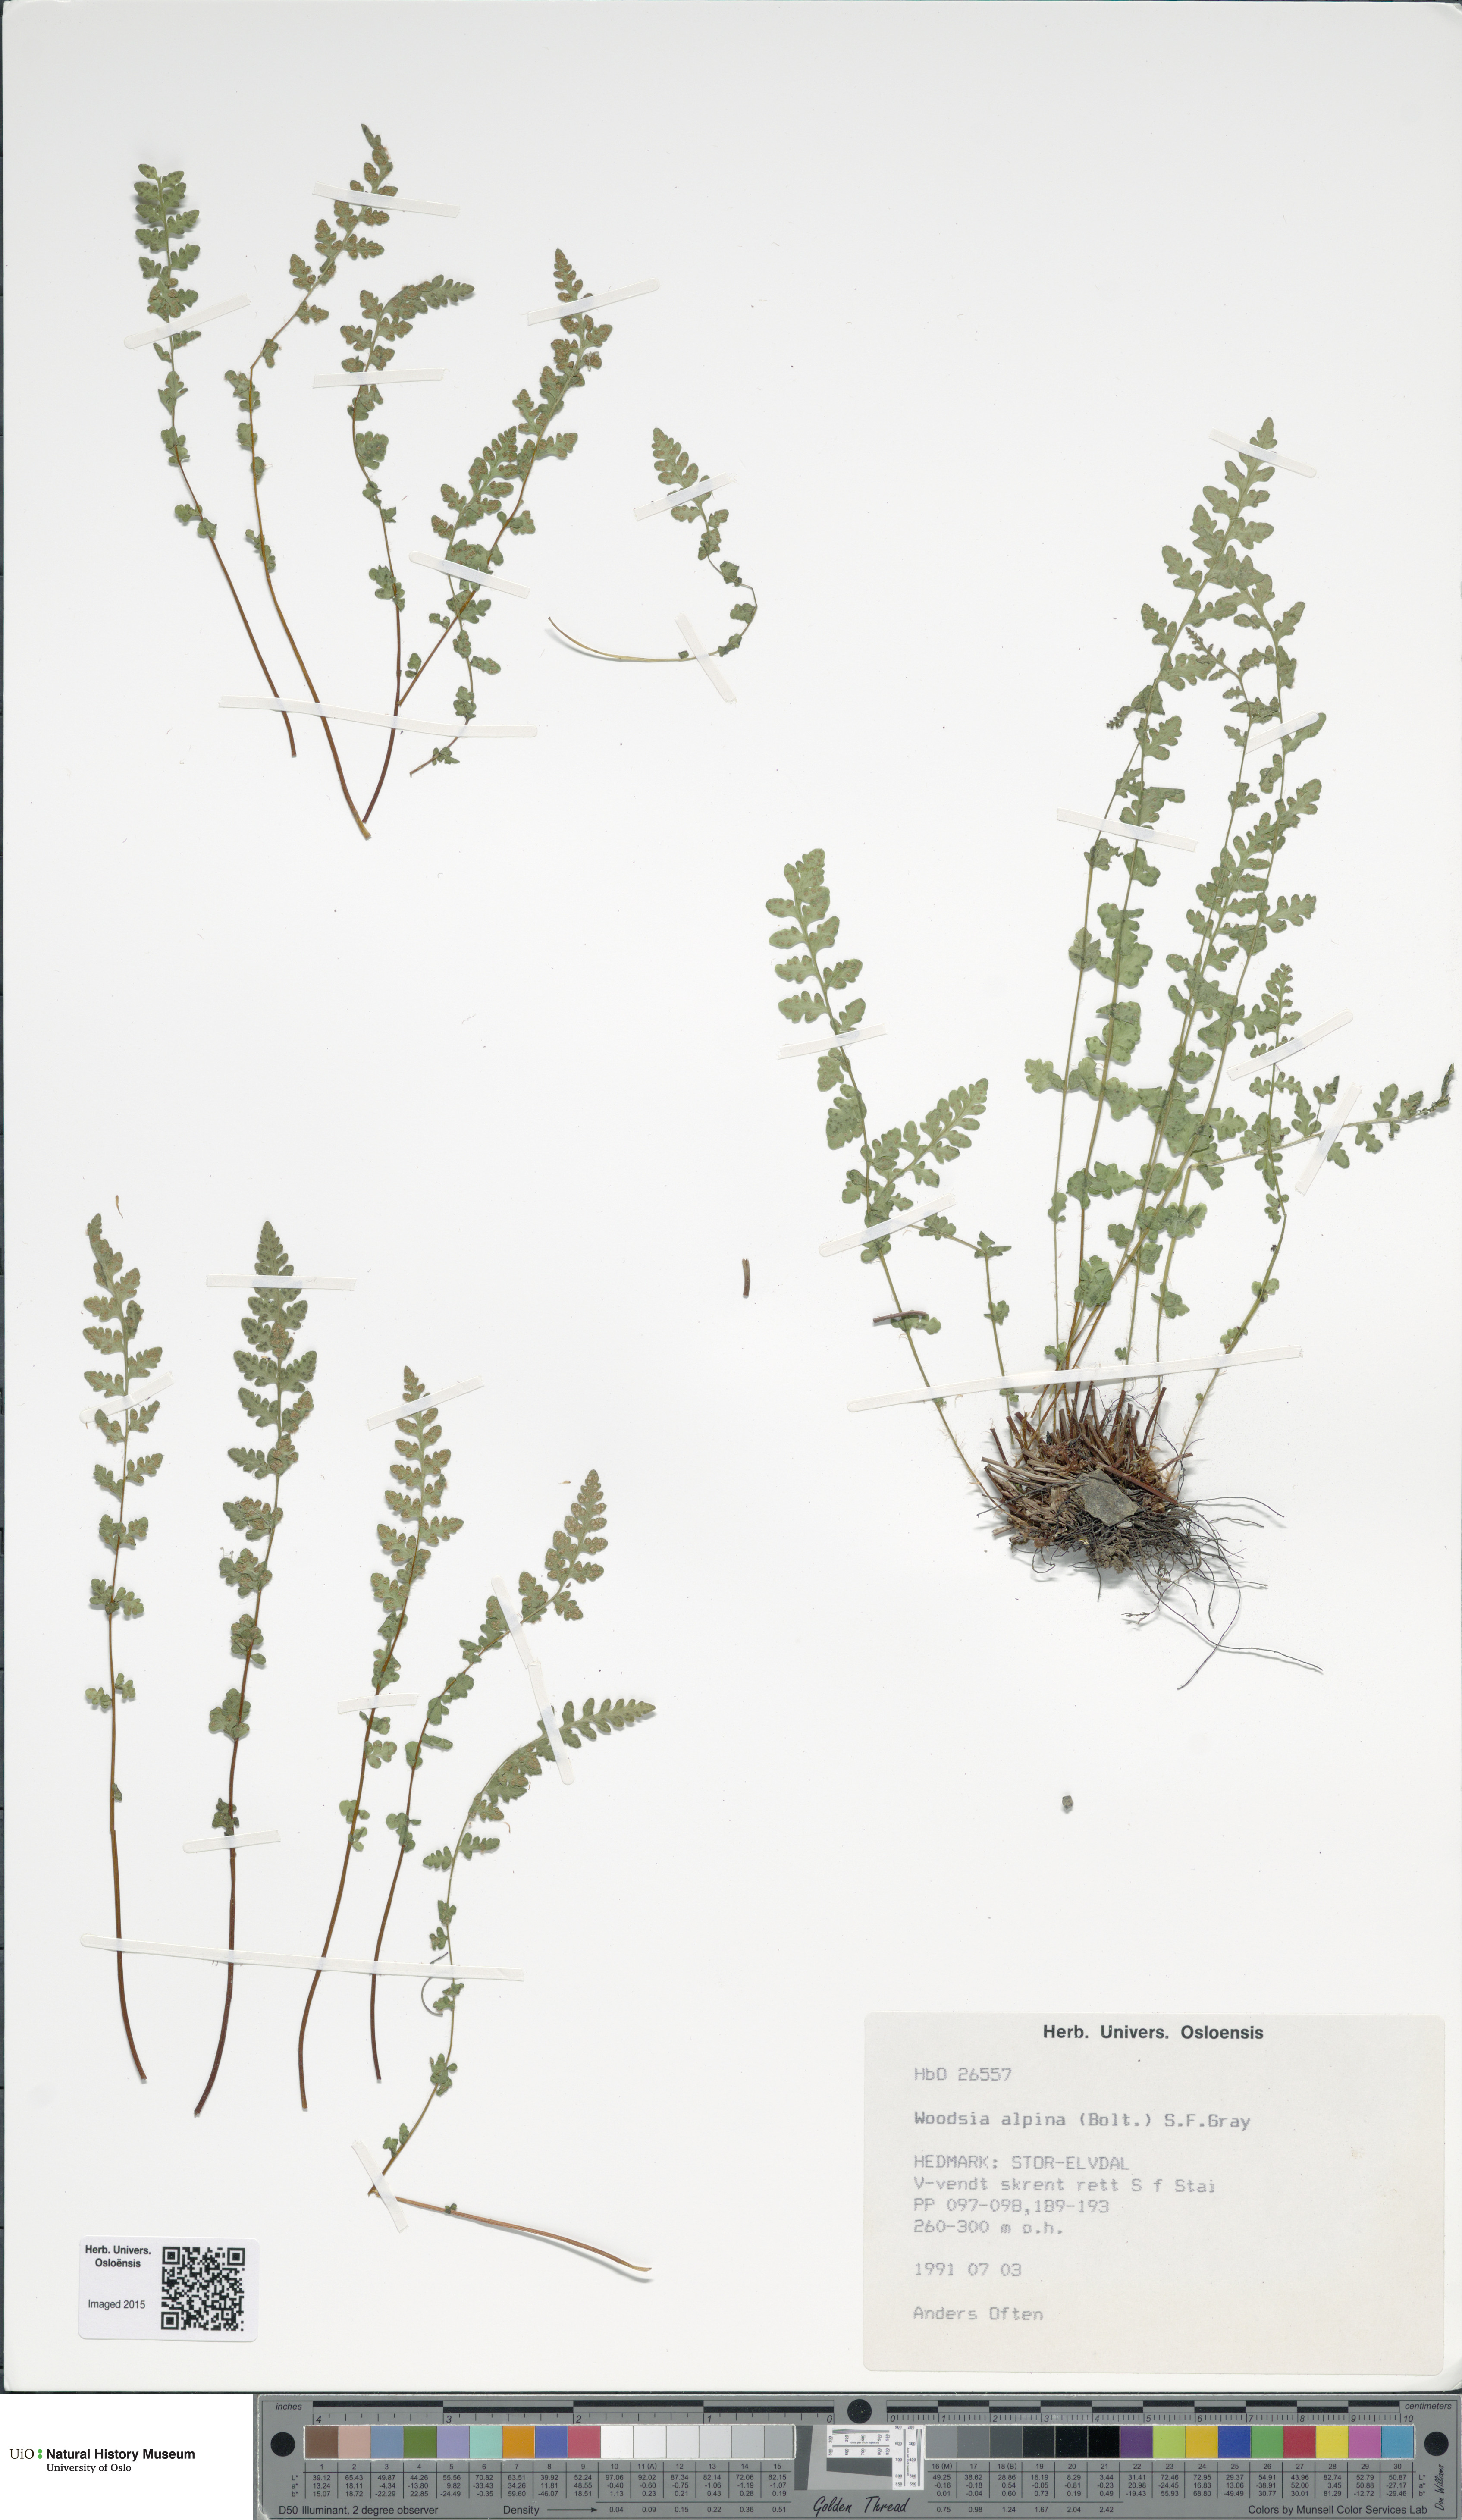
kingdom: Plantae
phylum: Tracheophyta
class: Polypodiopsida
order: Polypodiales
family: Woodsiaceae
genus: Woodsia
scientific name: Woodsia alpina
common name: Alpine woodsia
